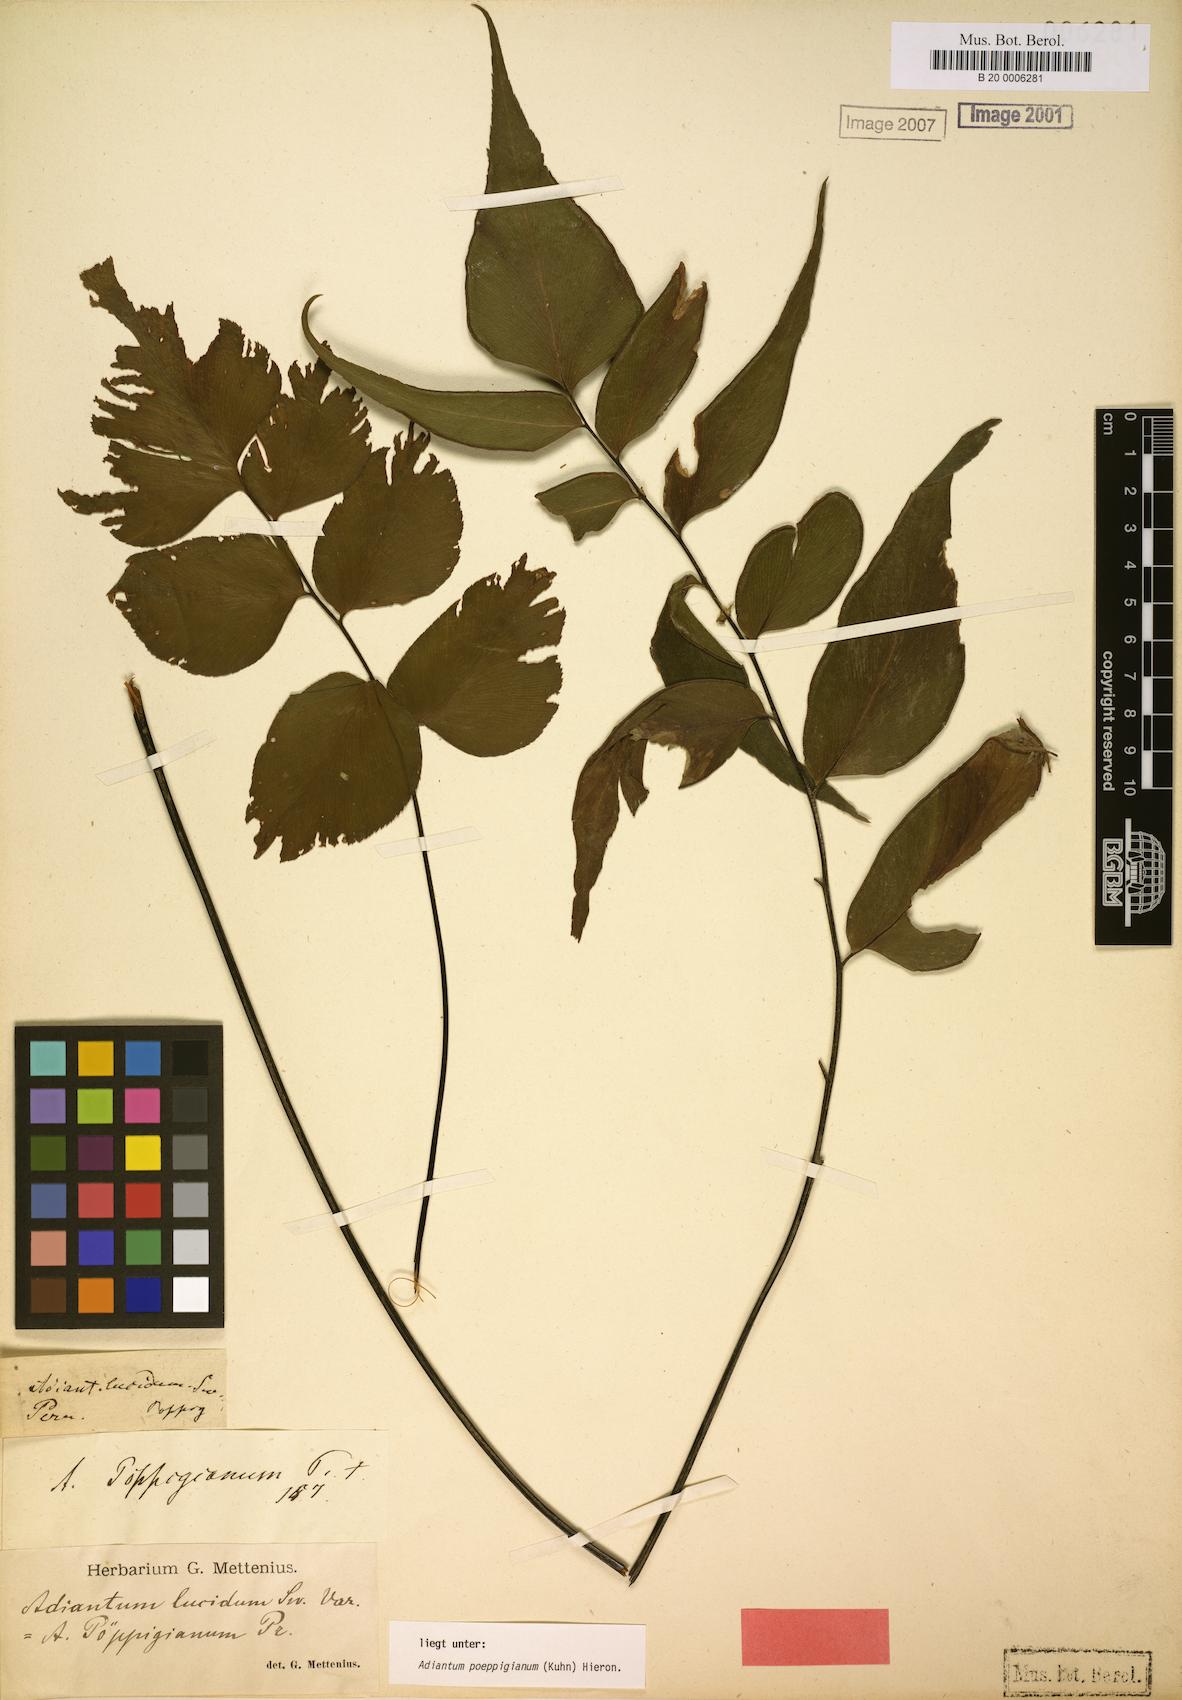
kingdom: Plantae
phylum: Tracheophyta
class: Polypodiopsida
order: Polypodiales
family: Pteridaceae
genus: Adiantum
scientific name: Adiantum poeppigianum
